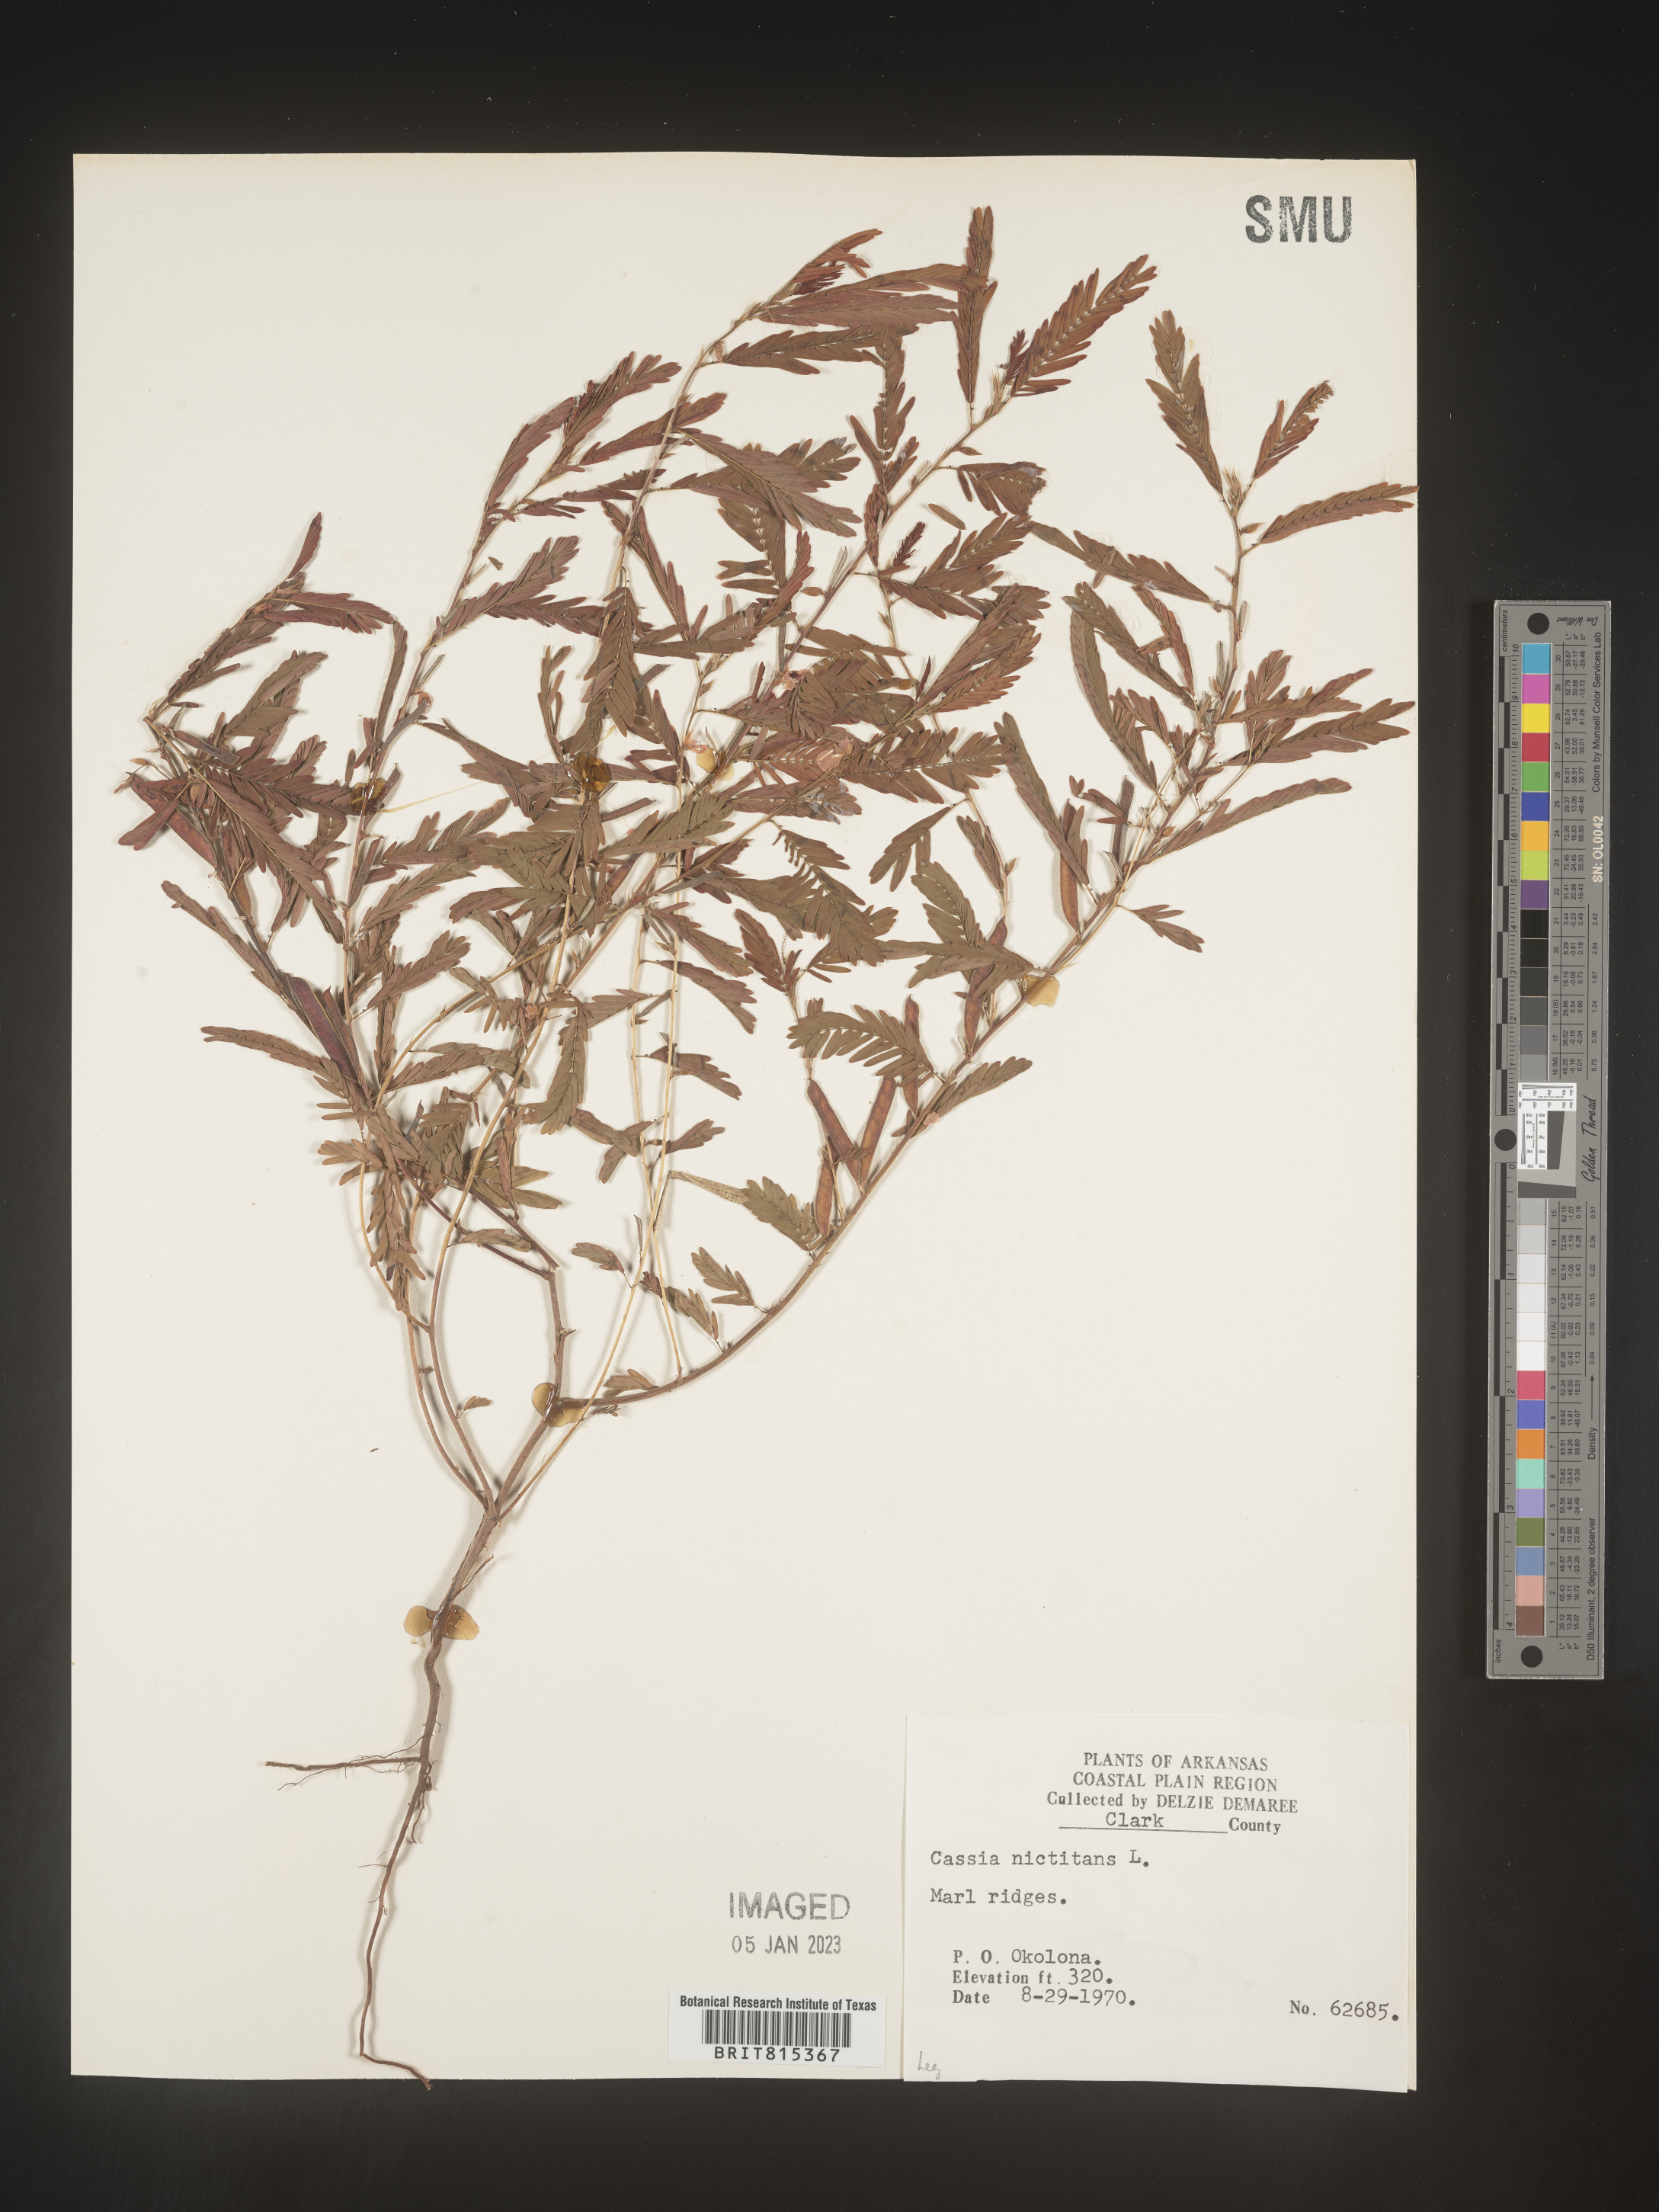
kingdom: Plantae
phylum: Tracheophyta
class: Magnoliopsida
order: Fabales
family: Fabaceae
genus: Chamaecrista
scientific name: Chamaecrista nictitans
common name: Sensitive cassia
